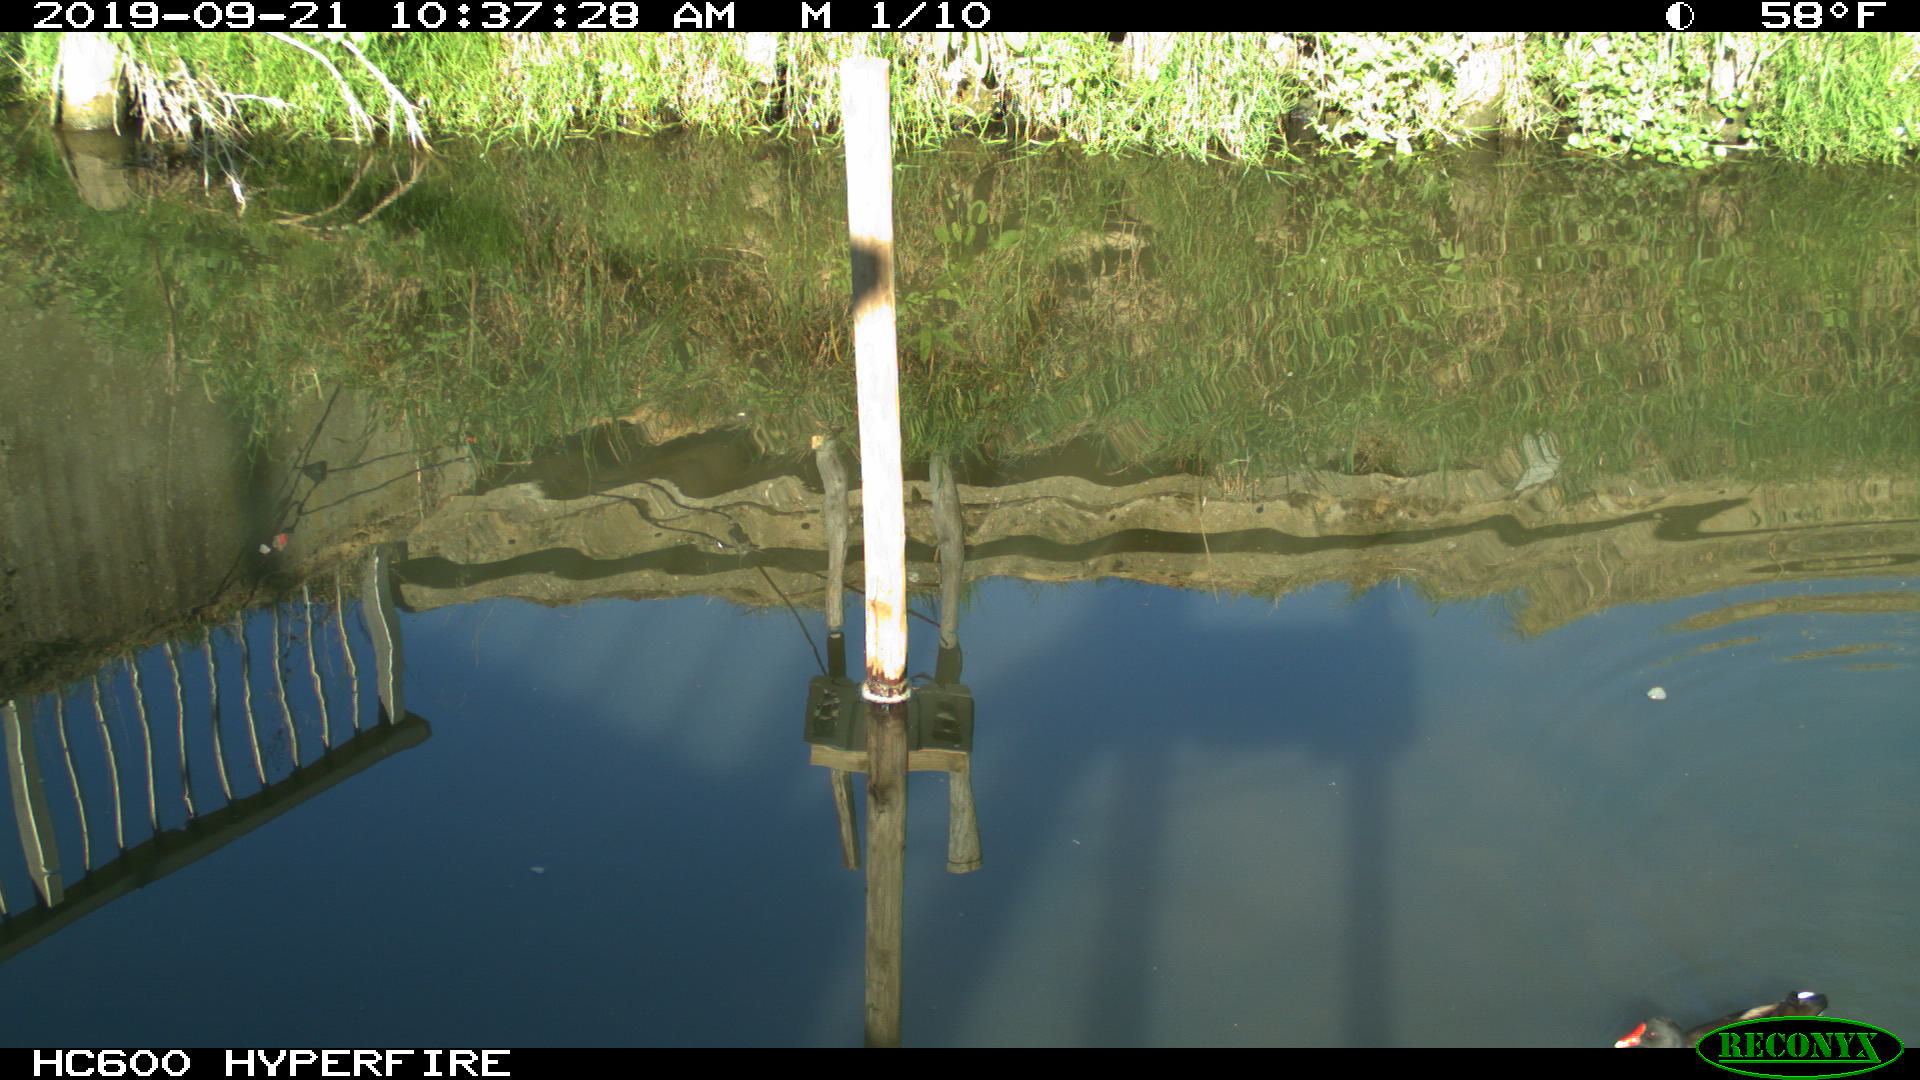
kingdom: Animalia
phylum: Chordata
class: Aves
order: Gruiformes
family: Rallidae
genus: Gallinula
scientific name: Gallinula chloropus
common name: Common moorhen
